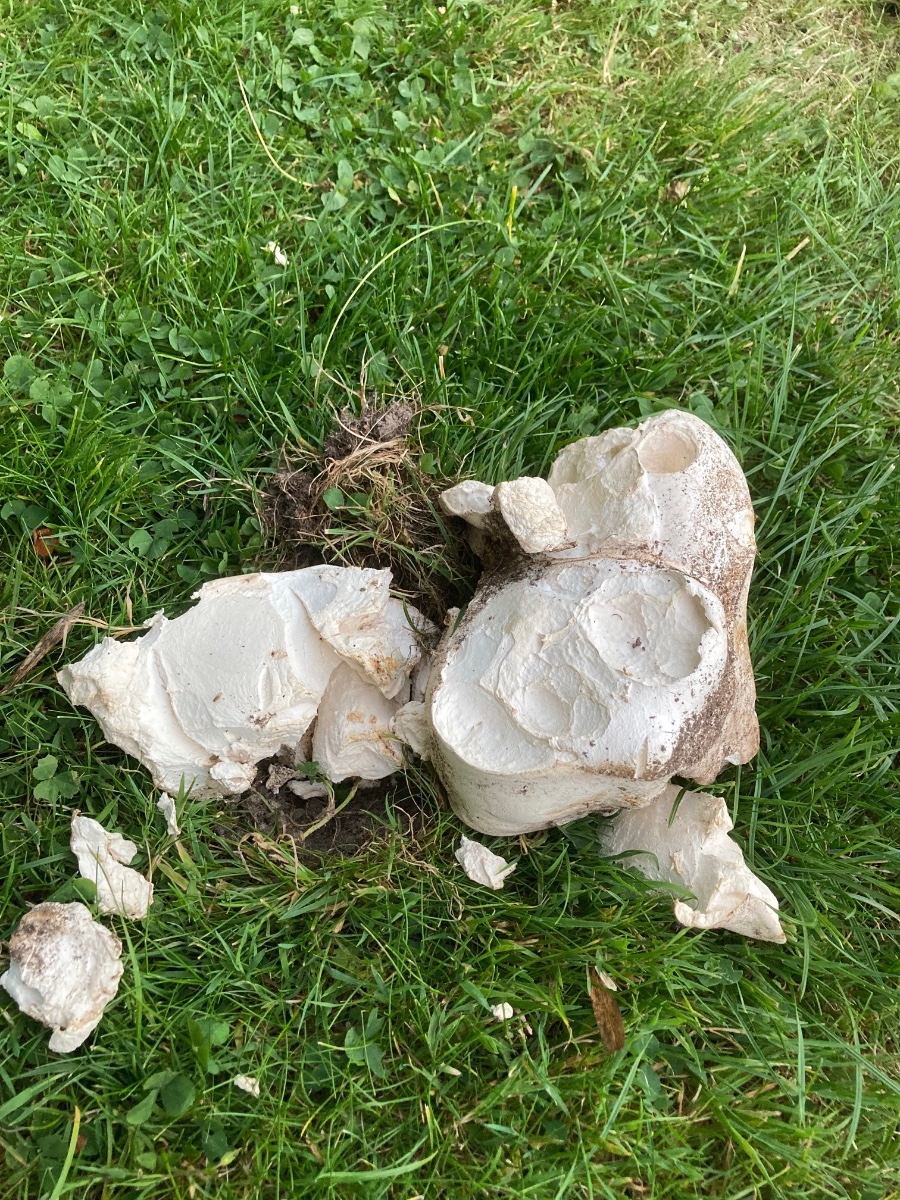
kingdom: Fungi
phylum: Basidiomycota
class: Agaricomycetes
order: Agaricales
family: Lycoperdaceae
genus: Calvatia
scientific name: Calvatia gigantea
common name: kæmpestøvbold
